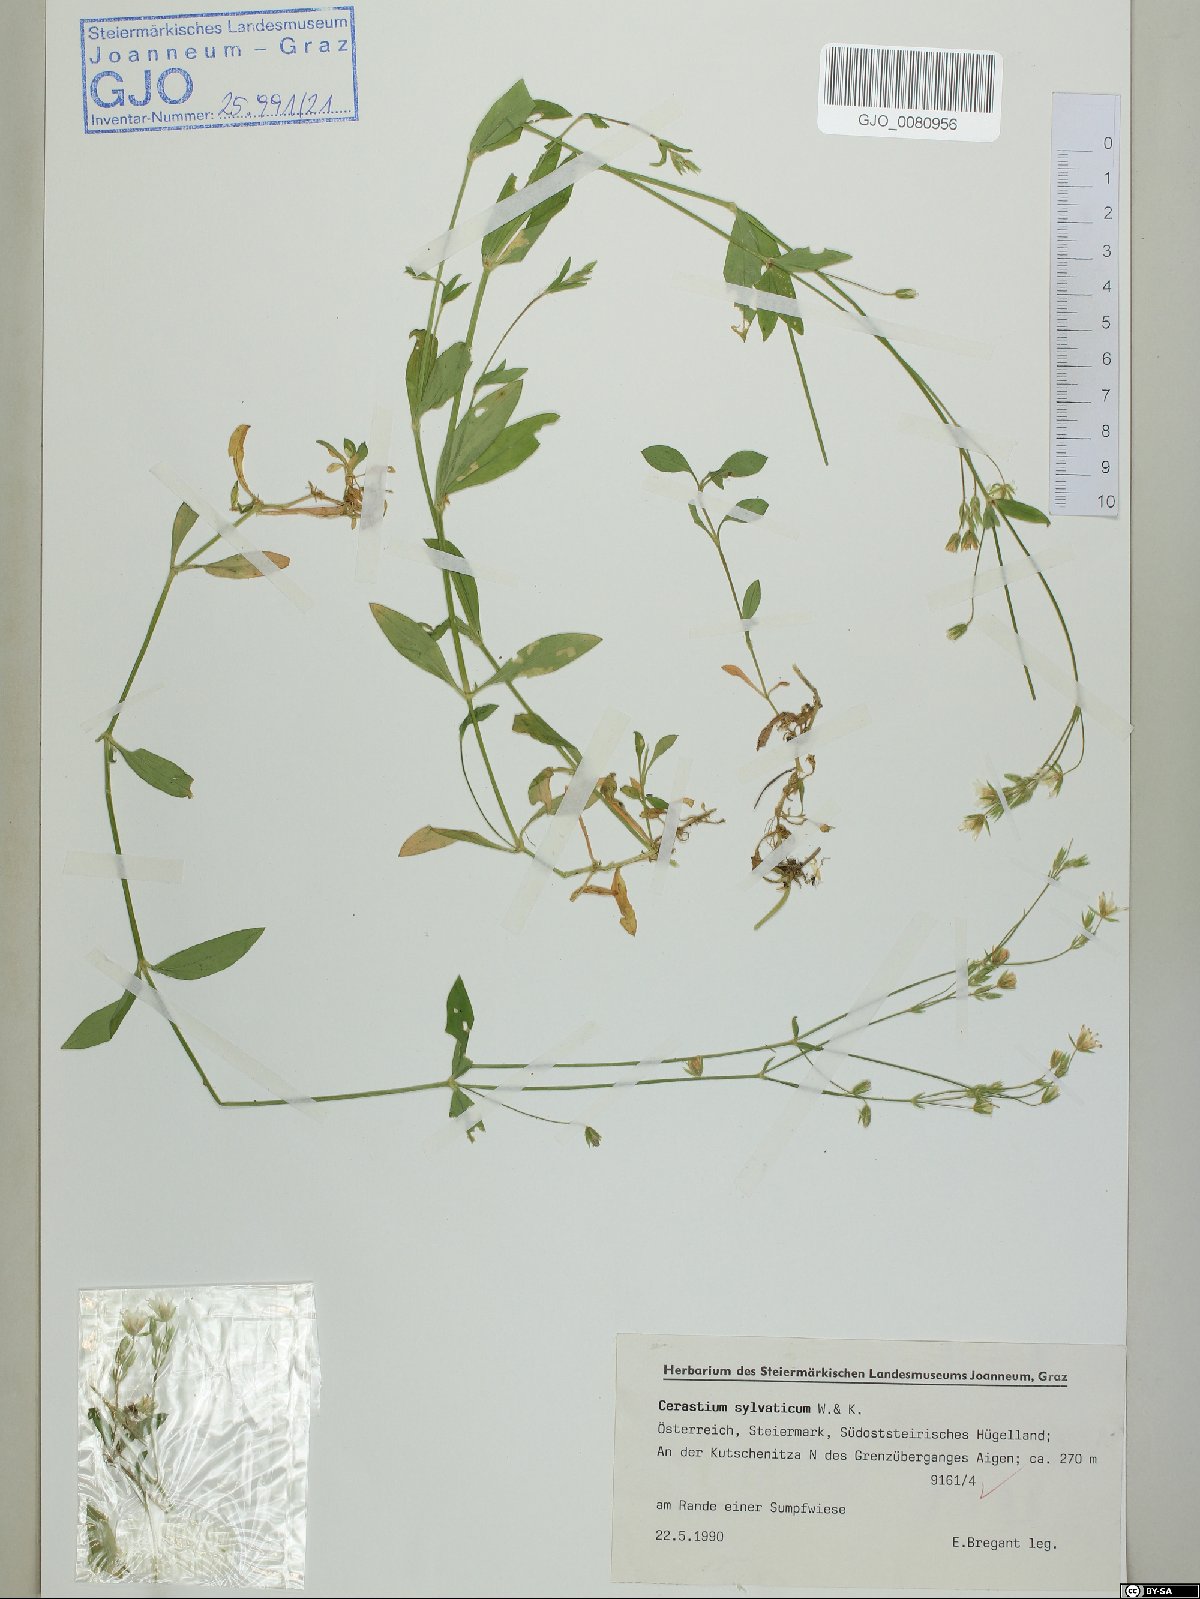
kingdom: Plantae
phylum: Tracheophyta
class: Magnoliopsida
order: Caryophyllales
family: Caryophyllaceae
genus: Cerastium
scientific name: Cerastium sylvaticum
